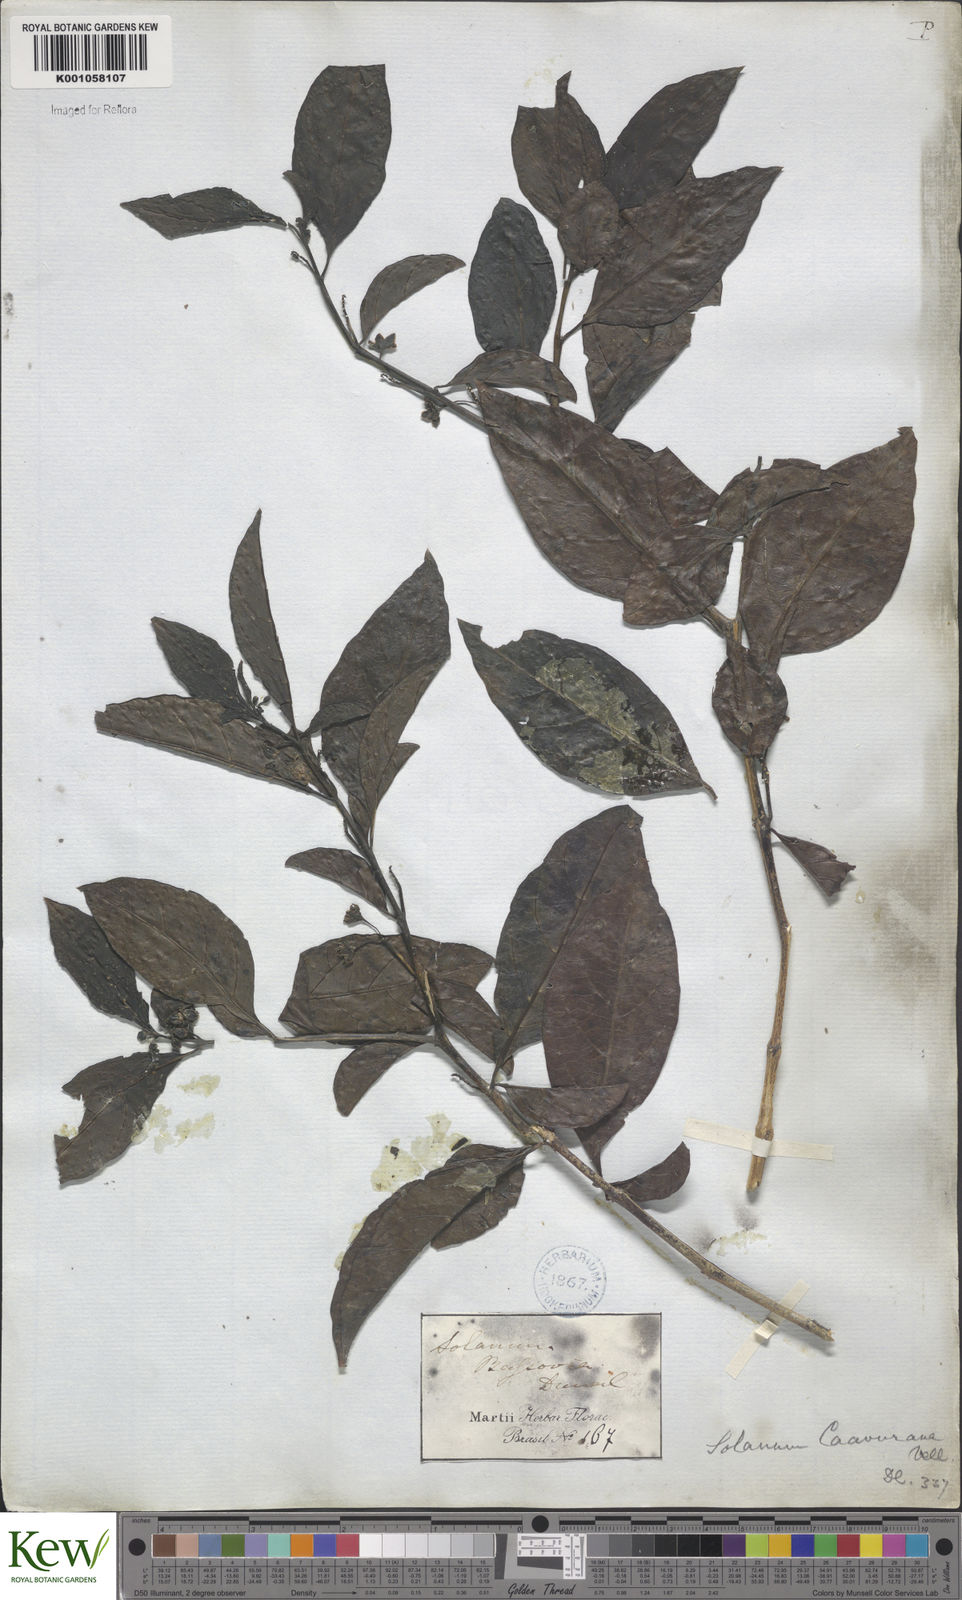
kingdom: Plantae
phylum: Tracheophyta
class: Magnoliopsida
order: Solanales
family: Solanaceae
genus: Solanum
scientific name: Solanum caavurana
